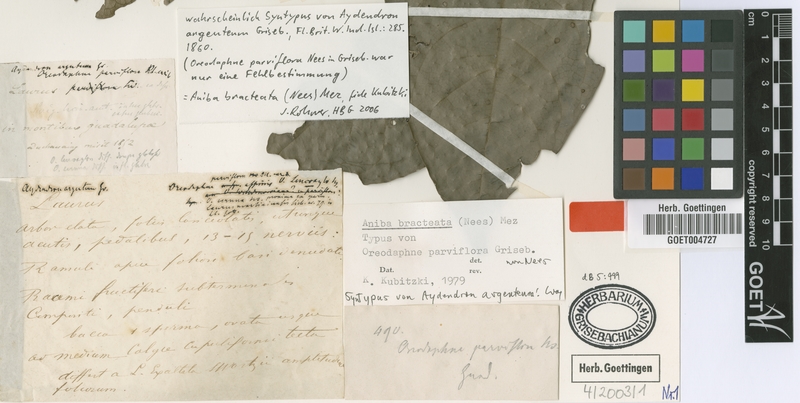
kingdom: Plantae
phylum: Tracheophyta
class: Magnoliopsida
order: Laurales
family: Lauraceae
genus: Aniba
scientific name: Aniba bracteata
